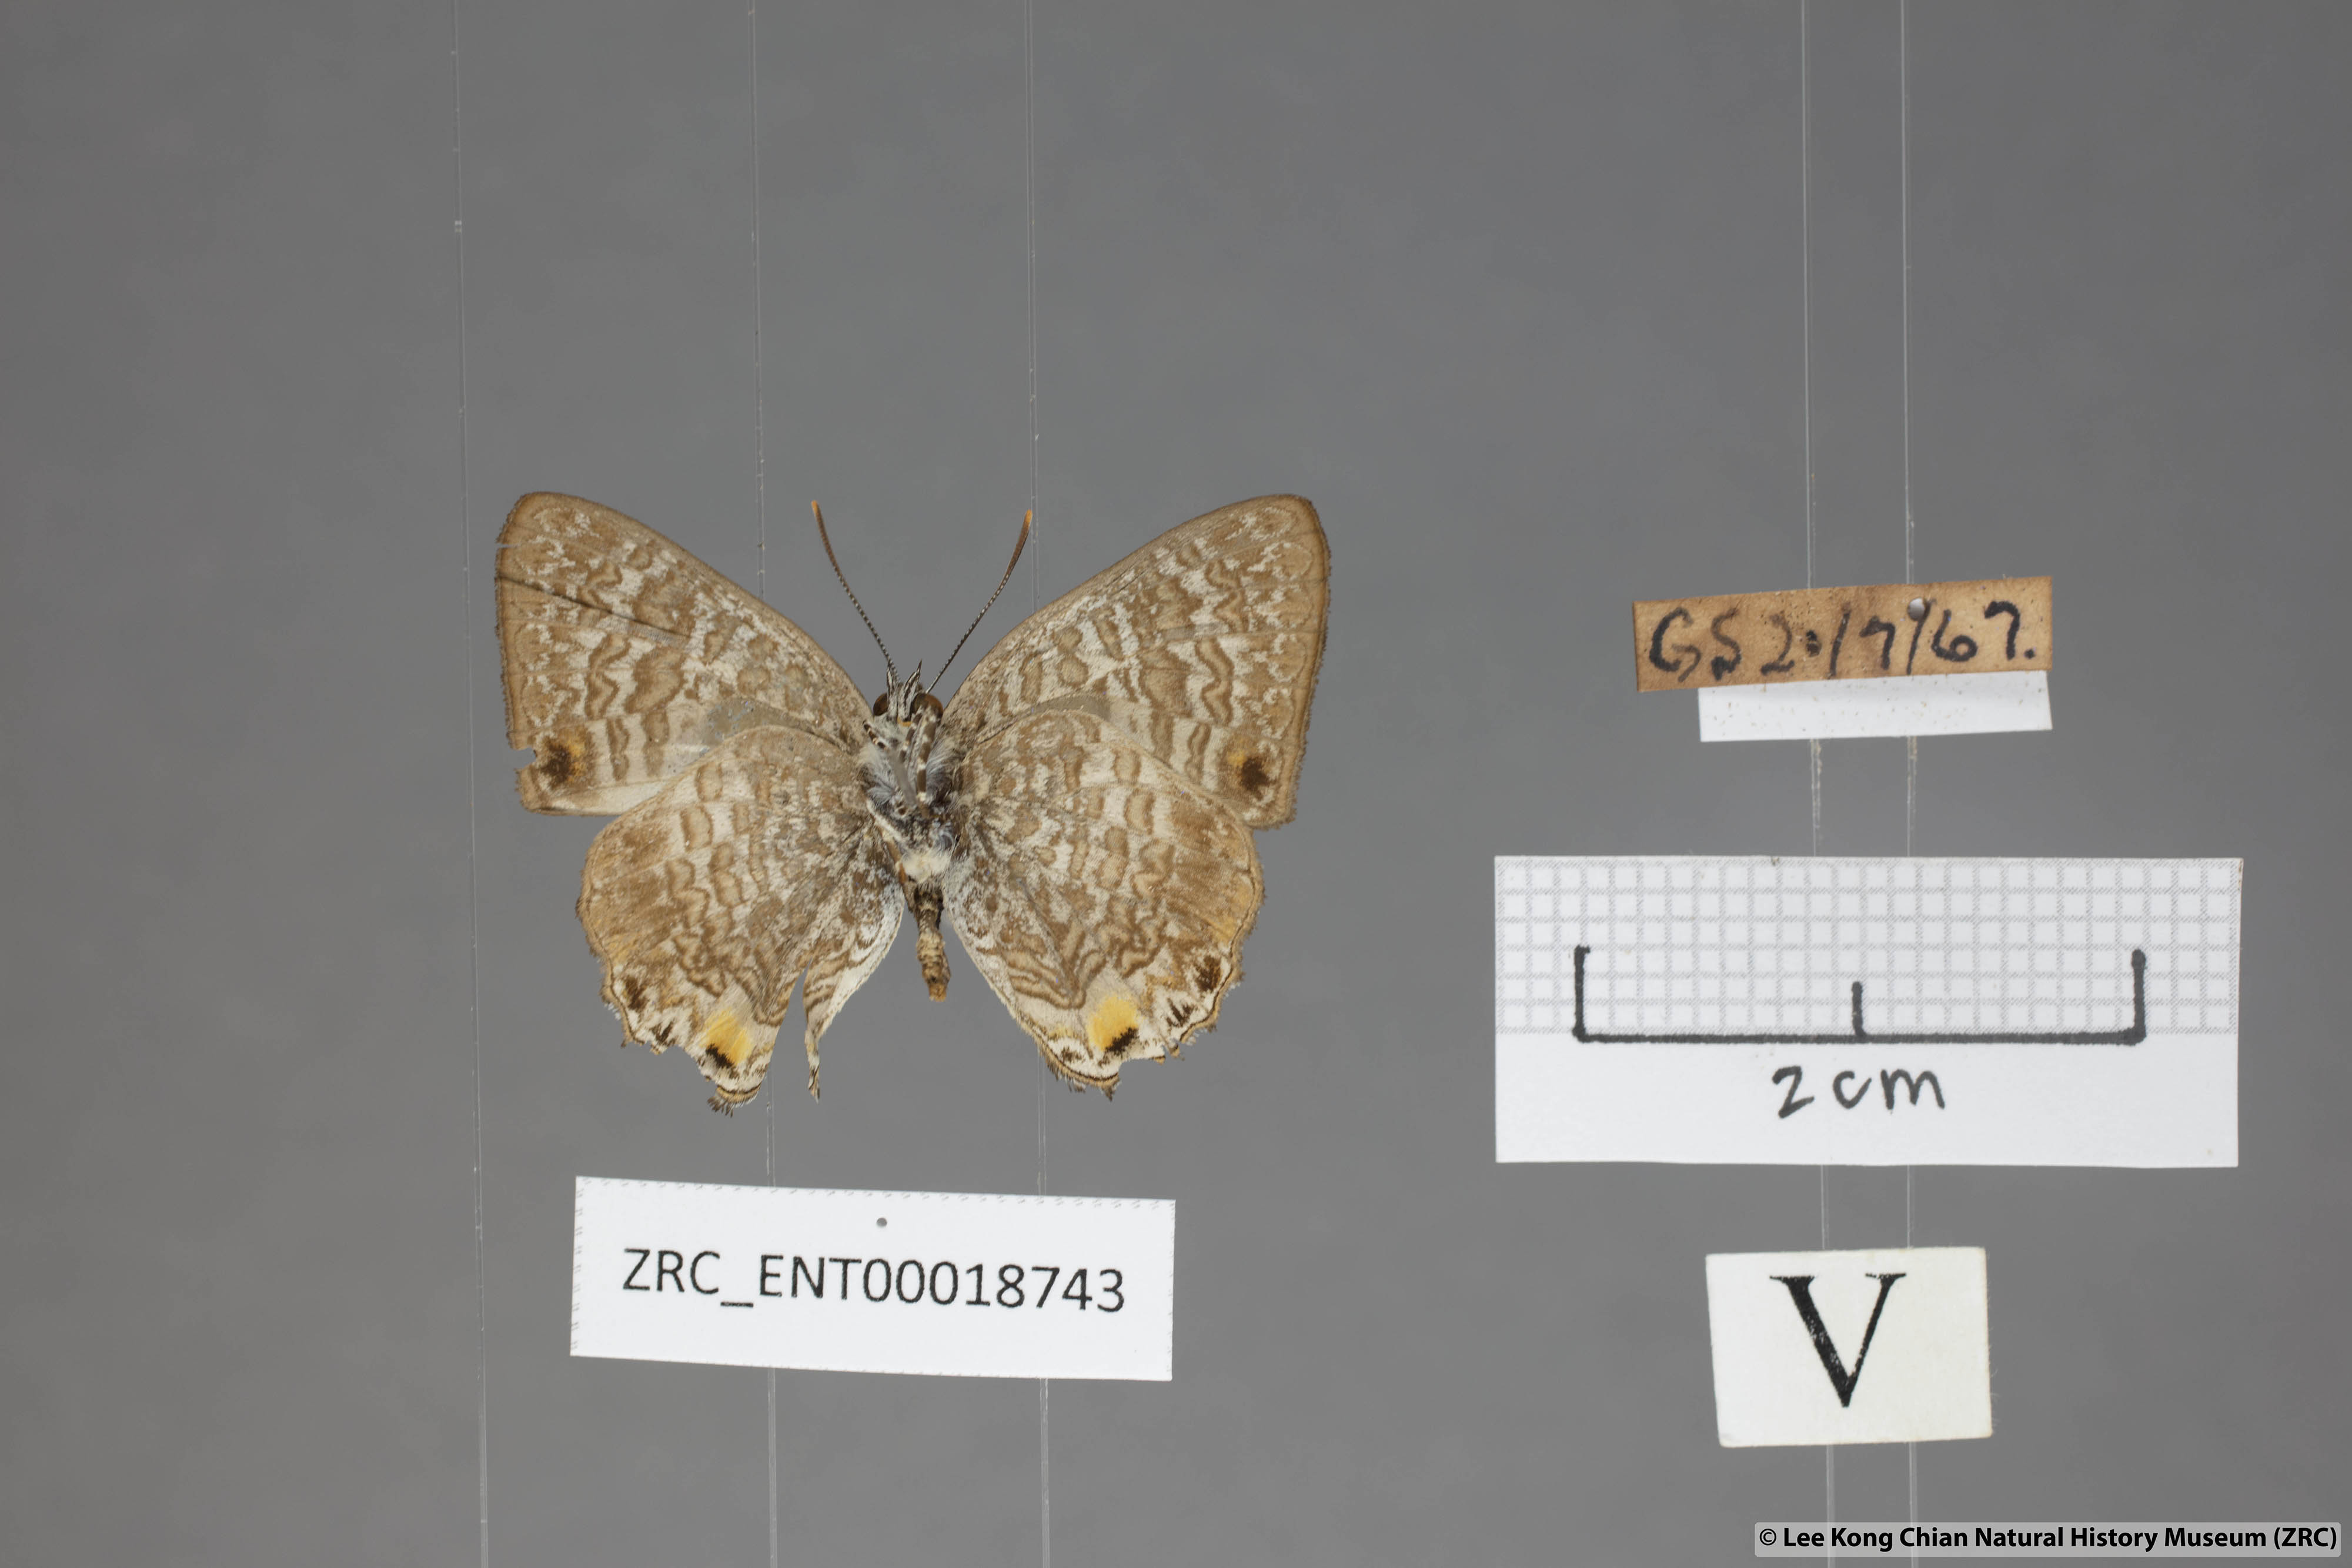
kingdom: Animalia
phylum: Arthropoda
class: Insecta
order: Lepidoptera
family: Lycaenidae
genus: Poritia
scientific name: Poritia erycinoides
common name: Blue gem
